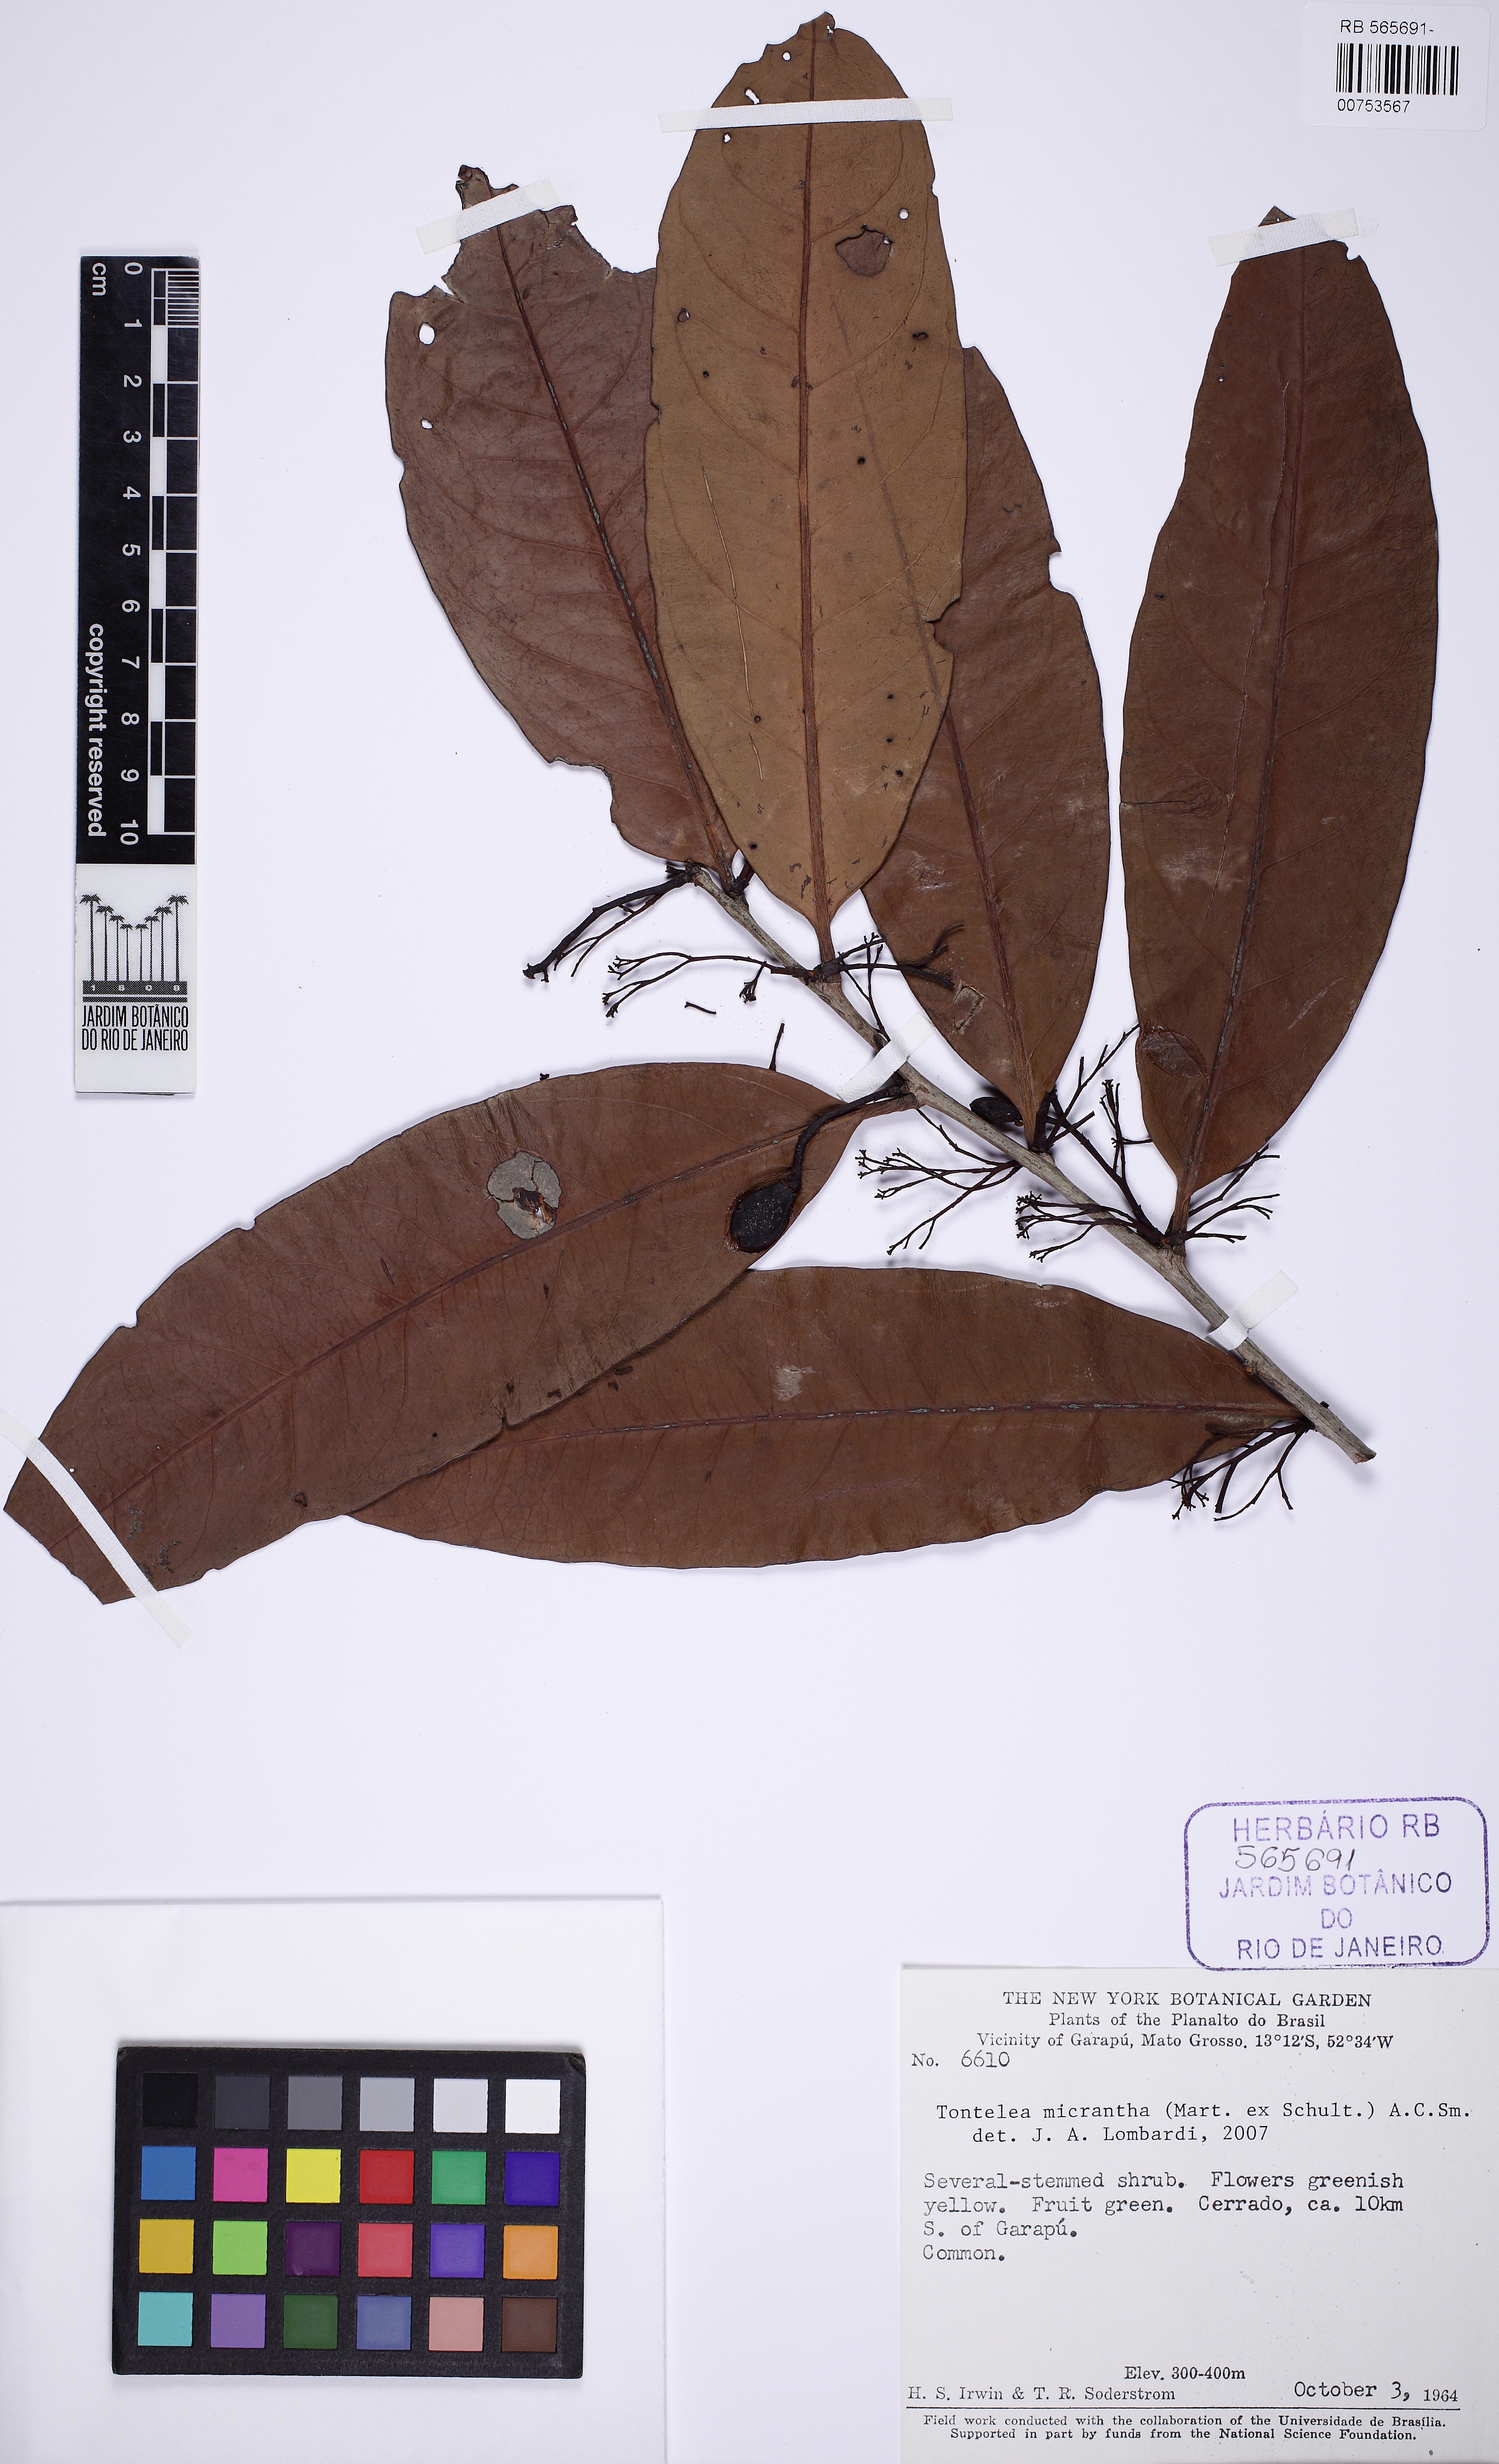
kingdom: Plantae
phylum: Tracheophyta
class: Magnoliopsida
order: Celastrales
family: Celastraceae
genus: Tontelea
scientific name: Tontelea micrantha
